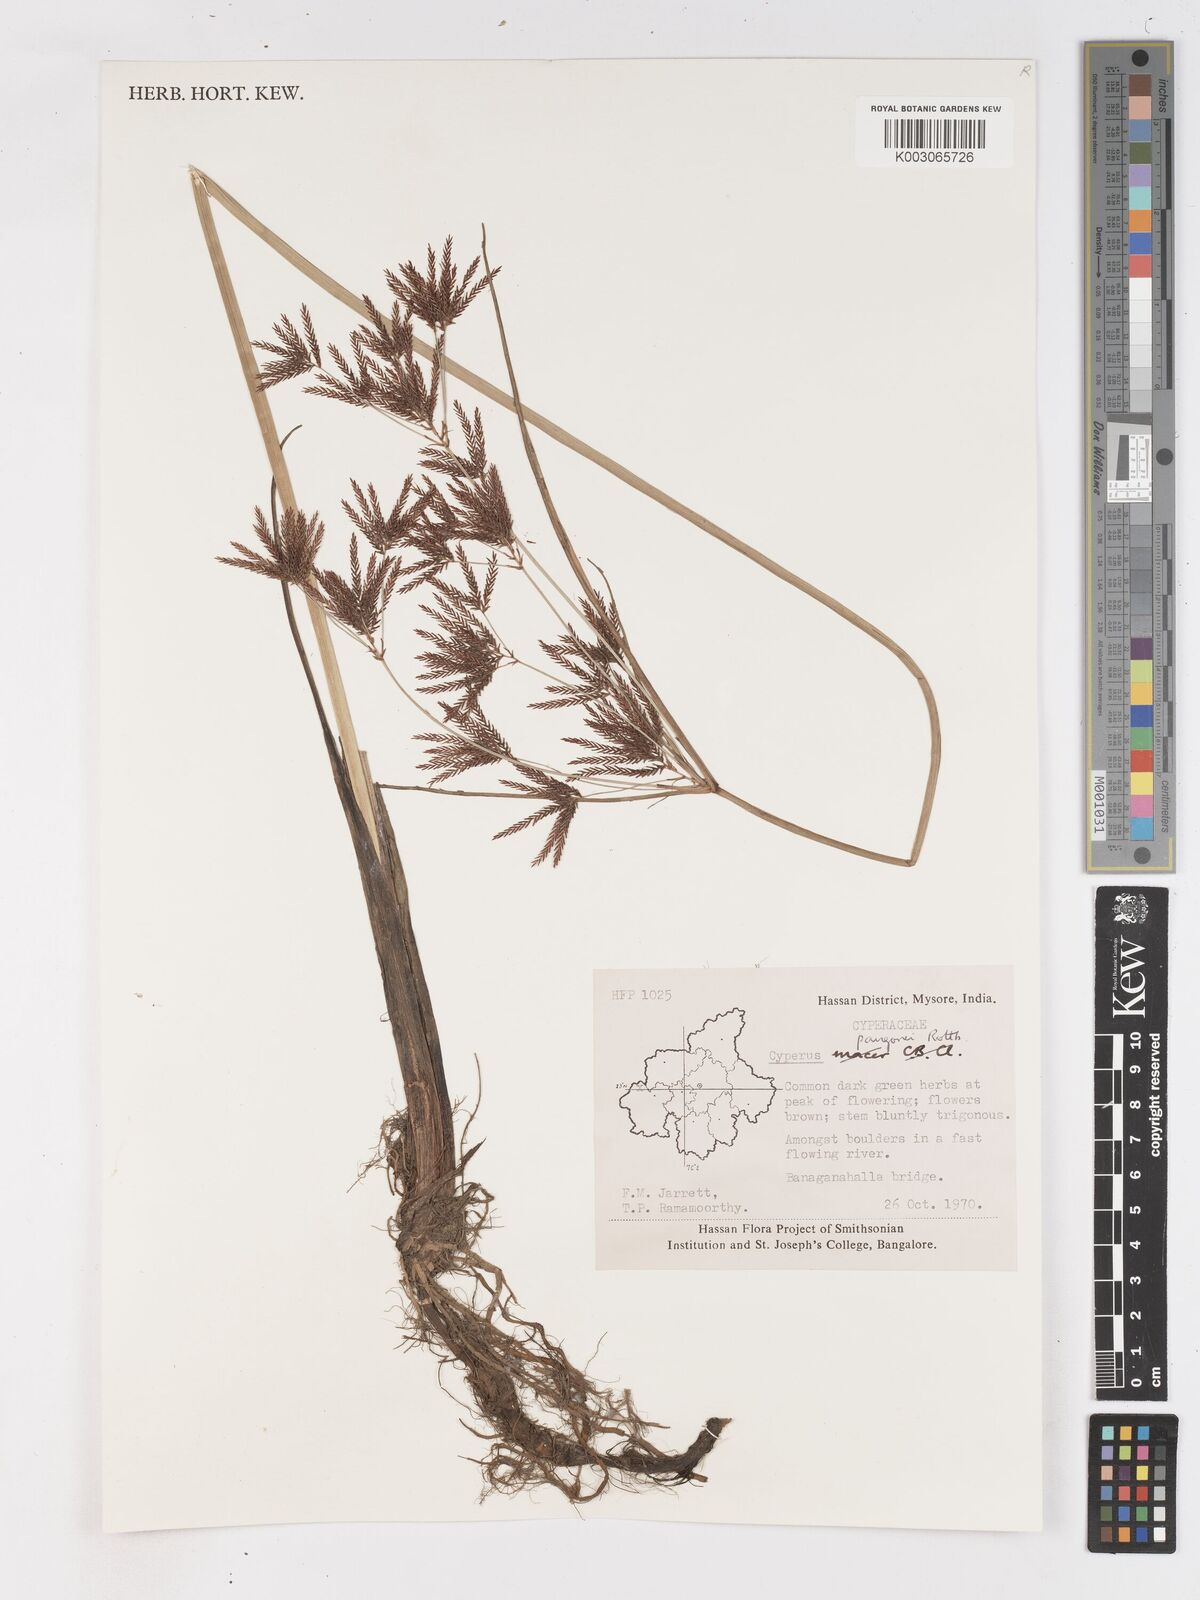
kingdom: Plantae
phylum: Tracheophyta
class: Liliopsida
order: Poales
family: Cyperaceae
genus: Cyperus
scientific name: Cyperus pangorei
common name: Mat sedge
